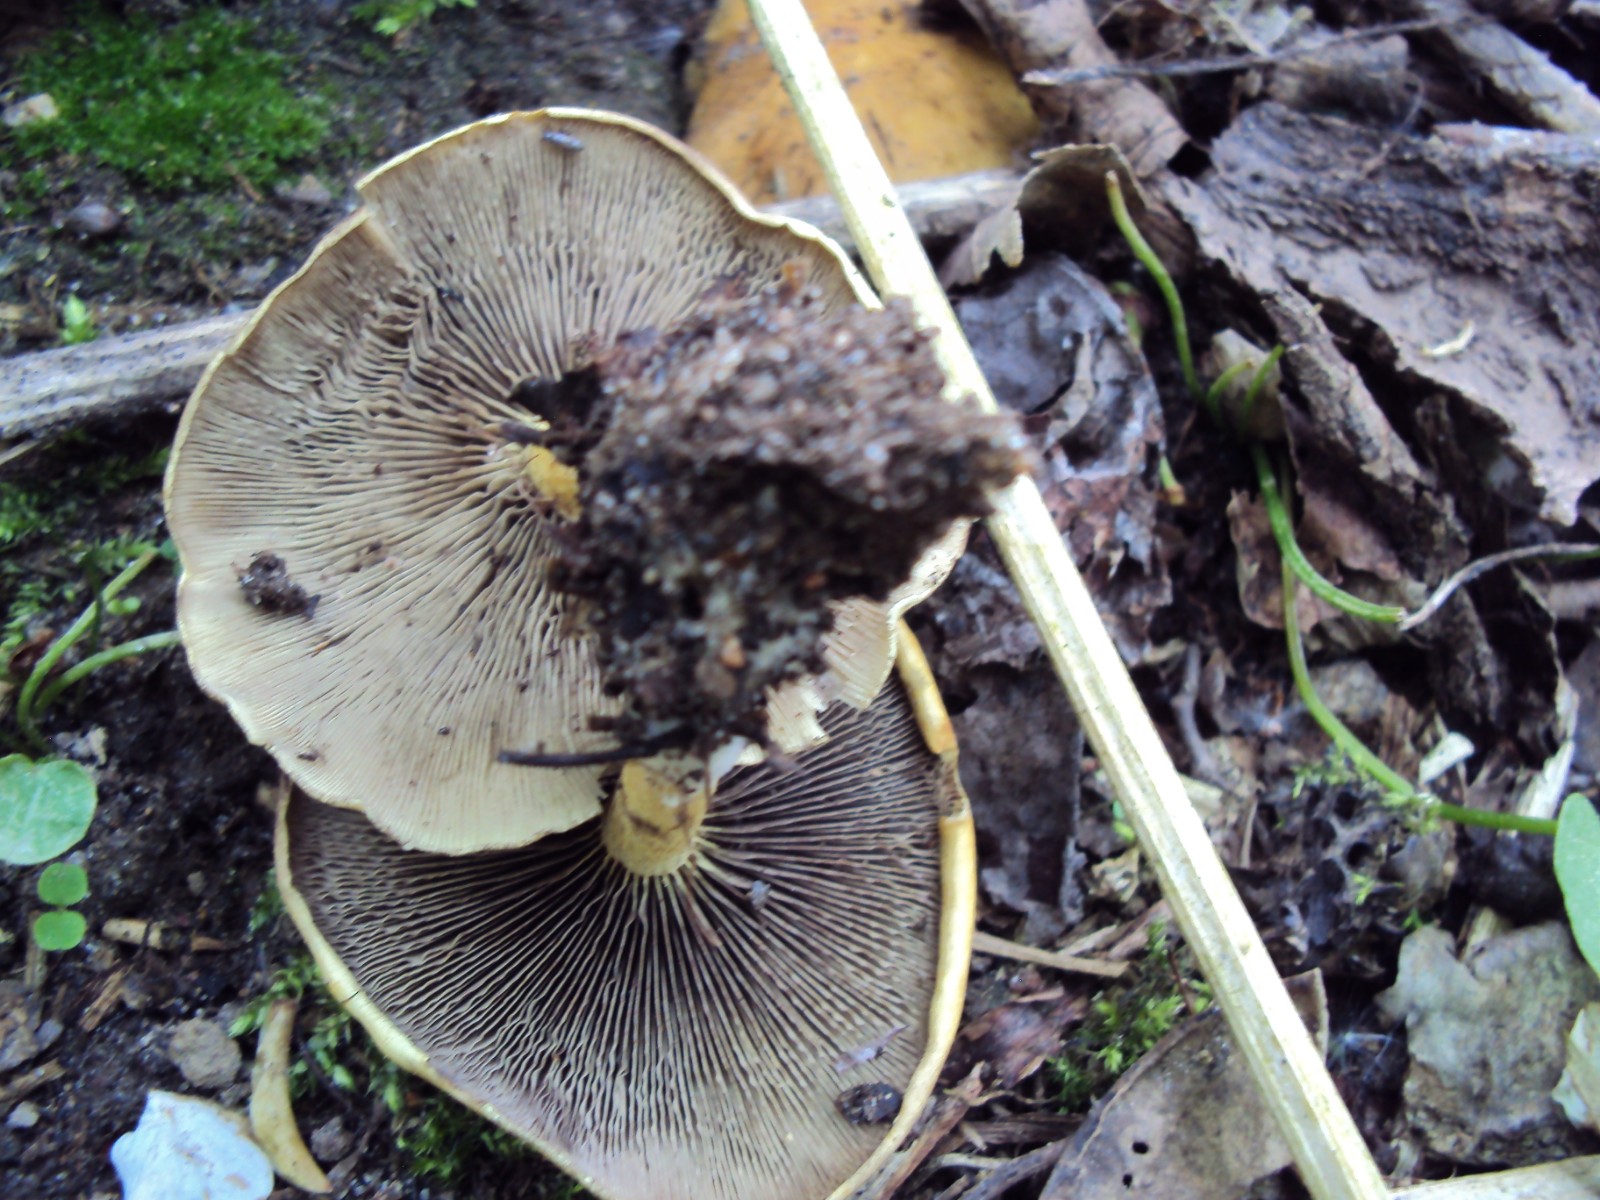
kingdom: Fungi
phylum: Basidiomycota
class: Agaricomycetes
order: Agaricales
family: Strophariaceae
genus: Hypholoma
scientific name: Hypholoma fasciculare
